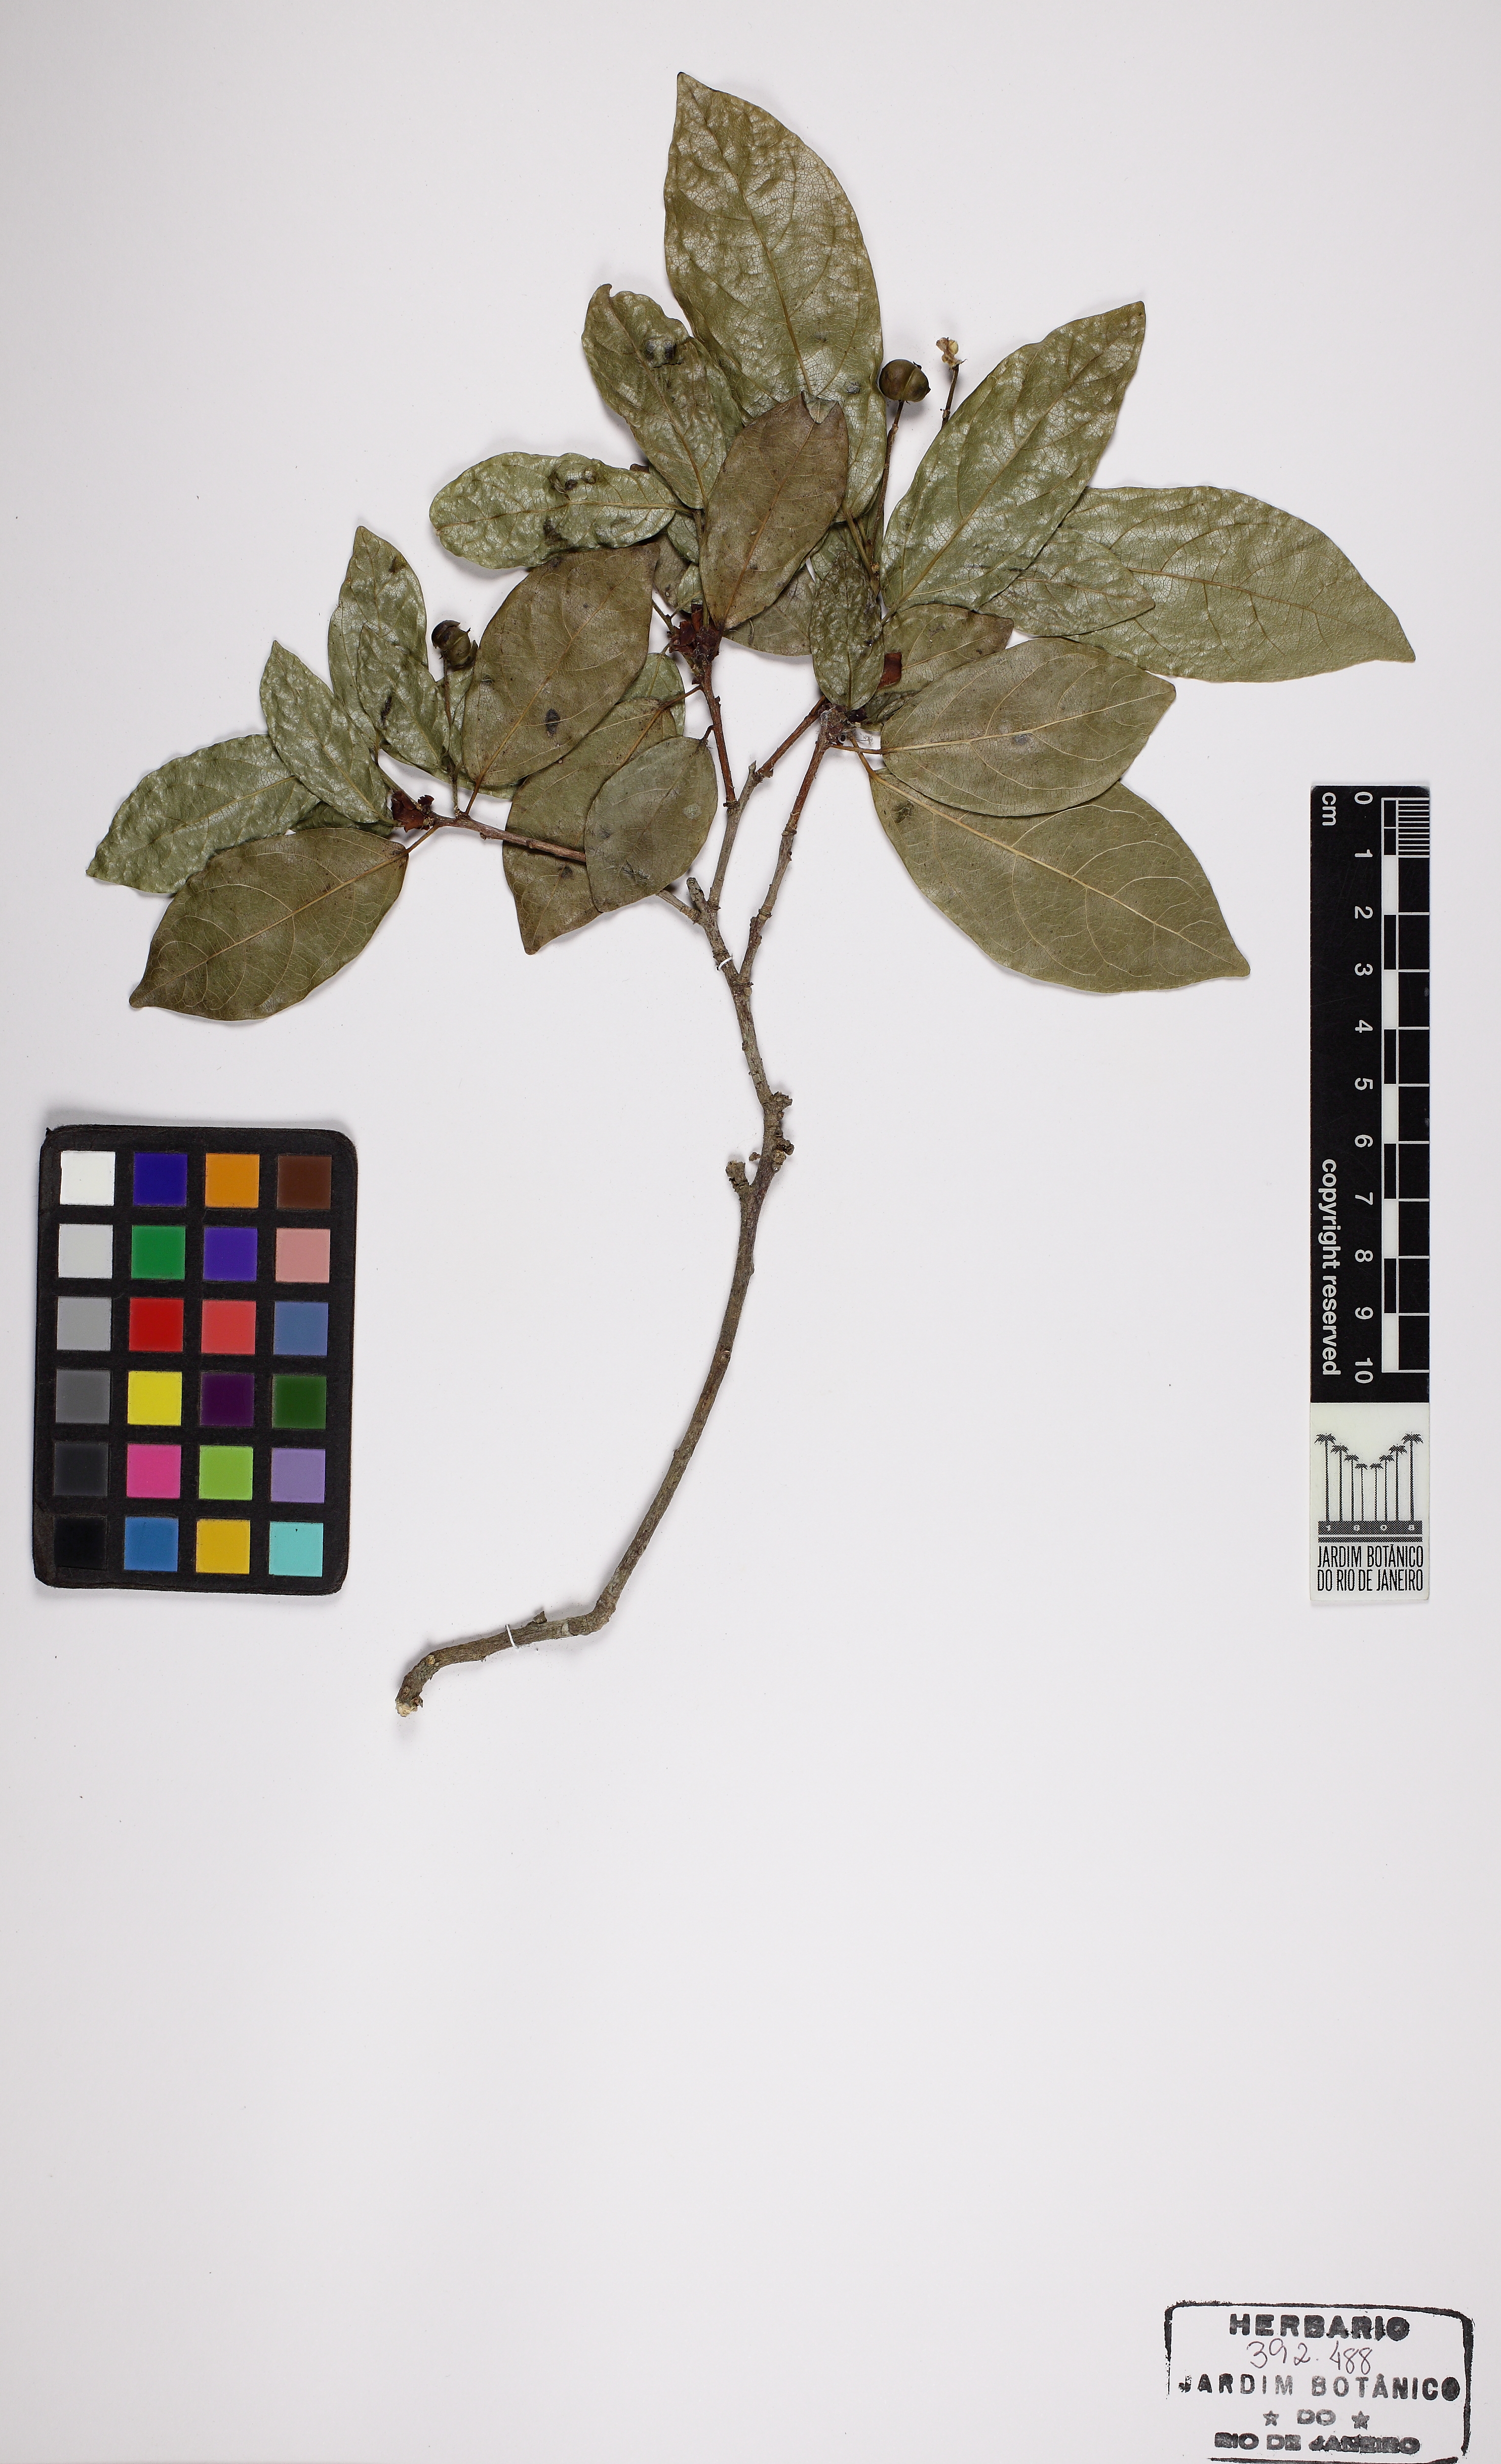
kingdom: Plantae
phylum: Tracheophyta
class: Magnoliopsida
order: Malpighiales
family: Euphorbiaceae
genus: Actinostemon
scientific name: Actinostemon klotzschii
